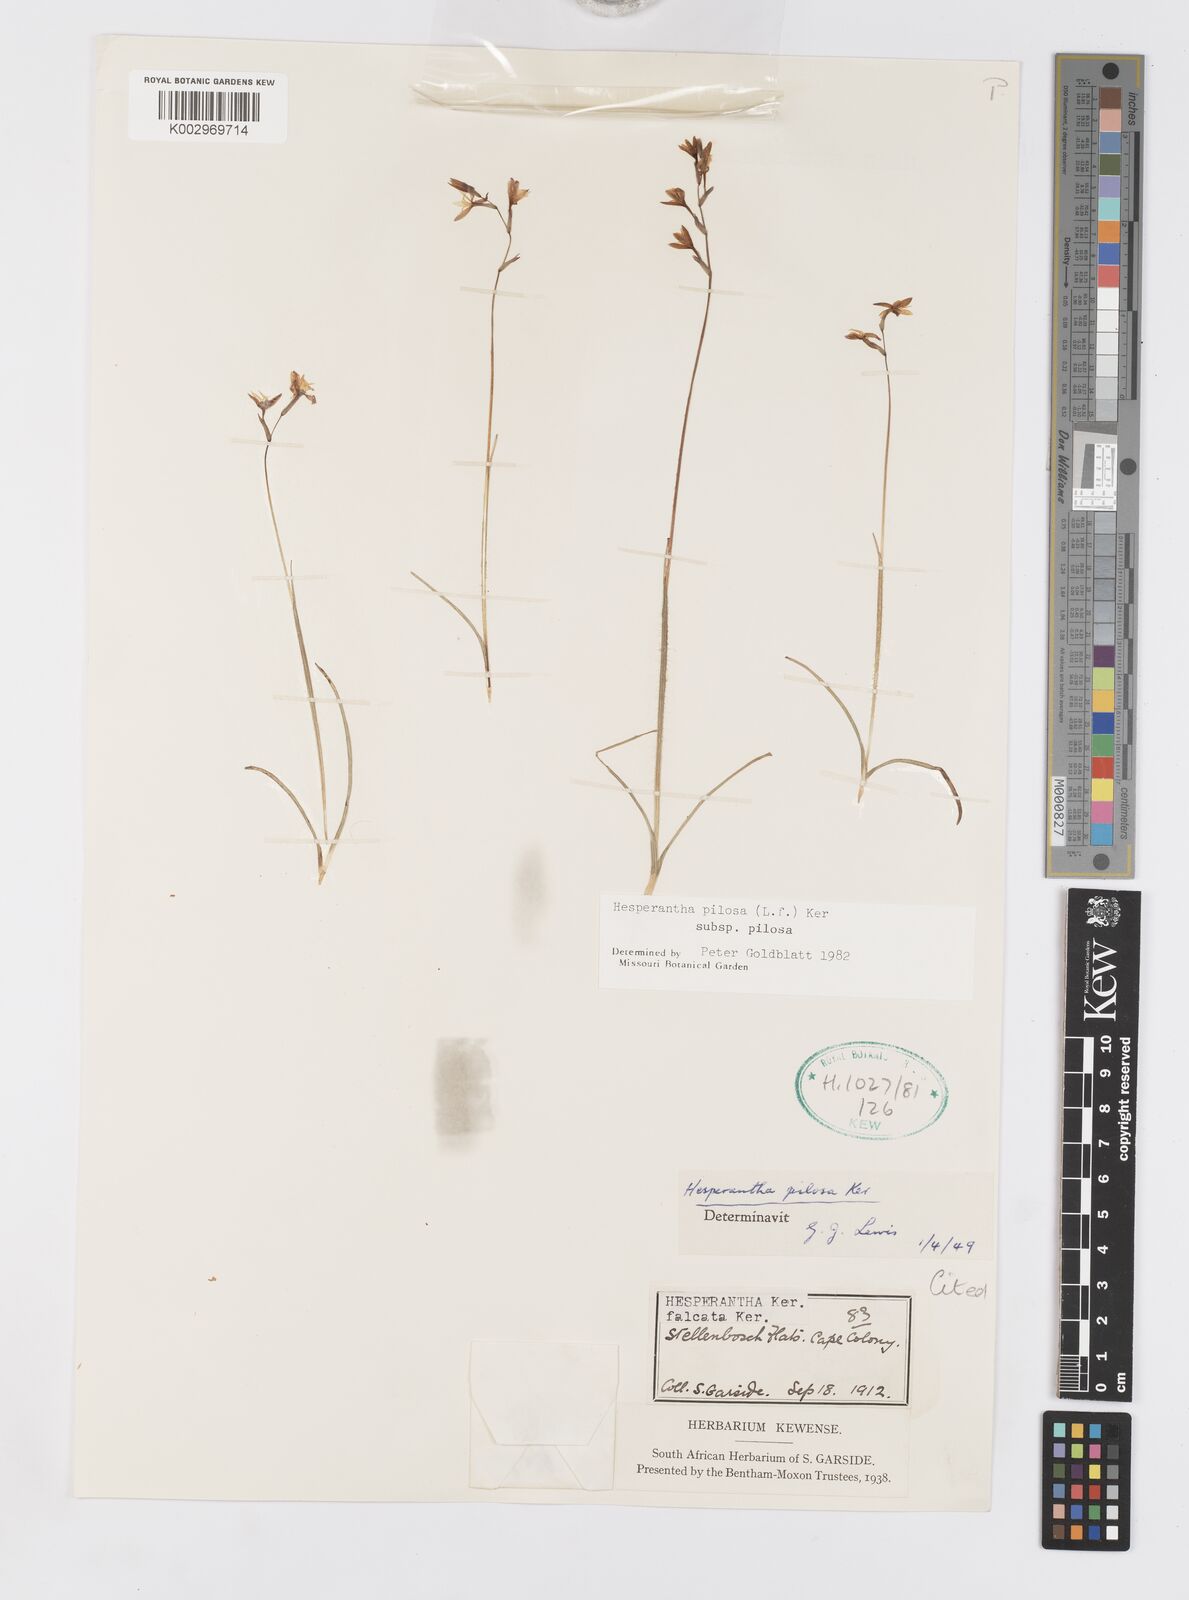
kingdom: Plantae
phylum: Tracheophyta
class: Liliopsida
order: Asparagales
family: Iridaceae
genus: Hesperantha
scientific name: Hesperantha pilosa
